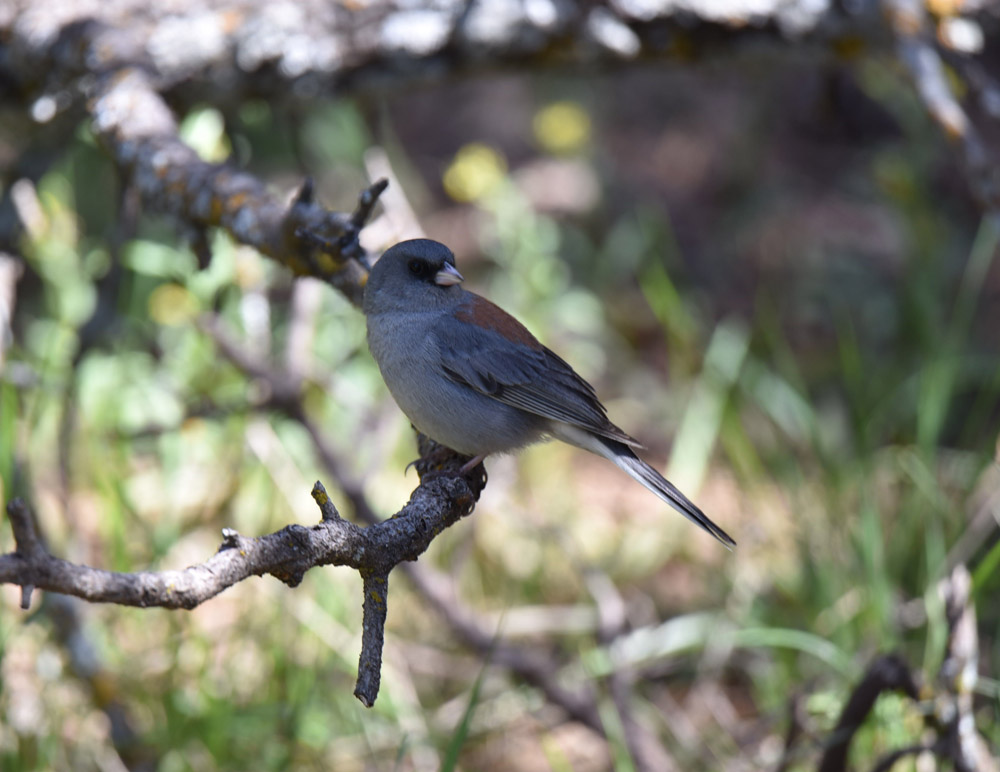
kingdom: Animalia
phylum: Chordata
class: Aves
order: Passeriformes
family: Passerellidae
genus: Junco
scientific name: Junco hyemalis
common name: Dark-eyed junco
